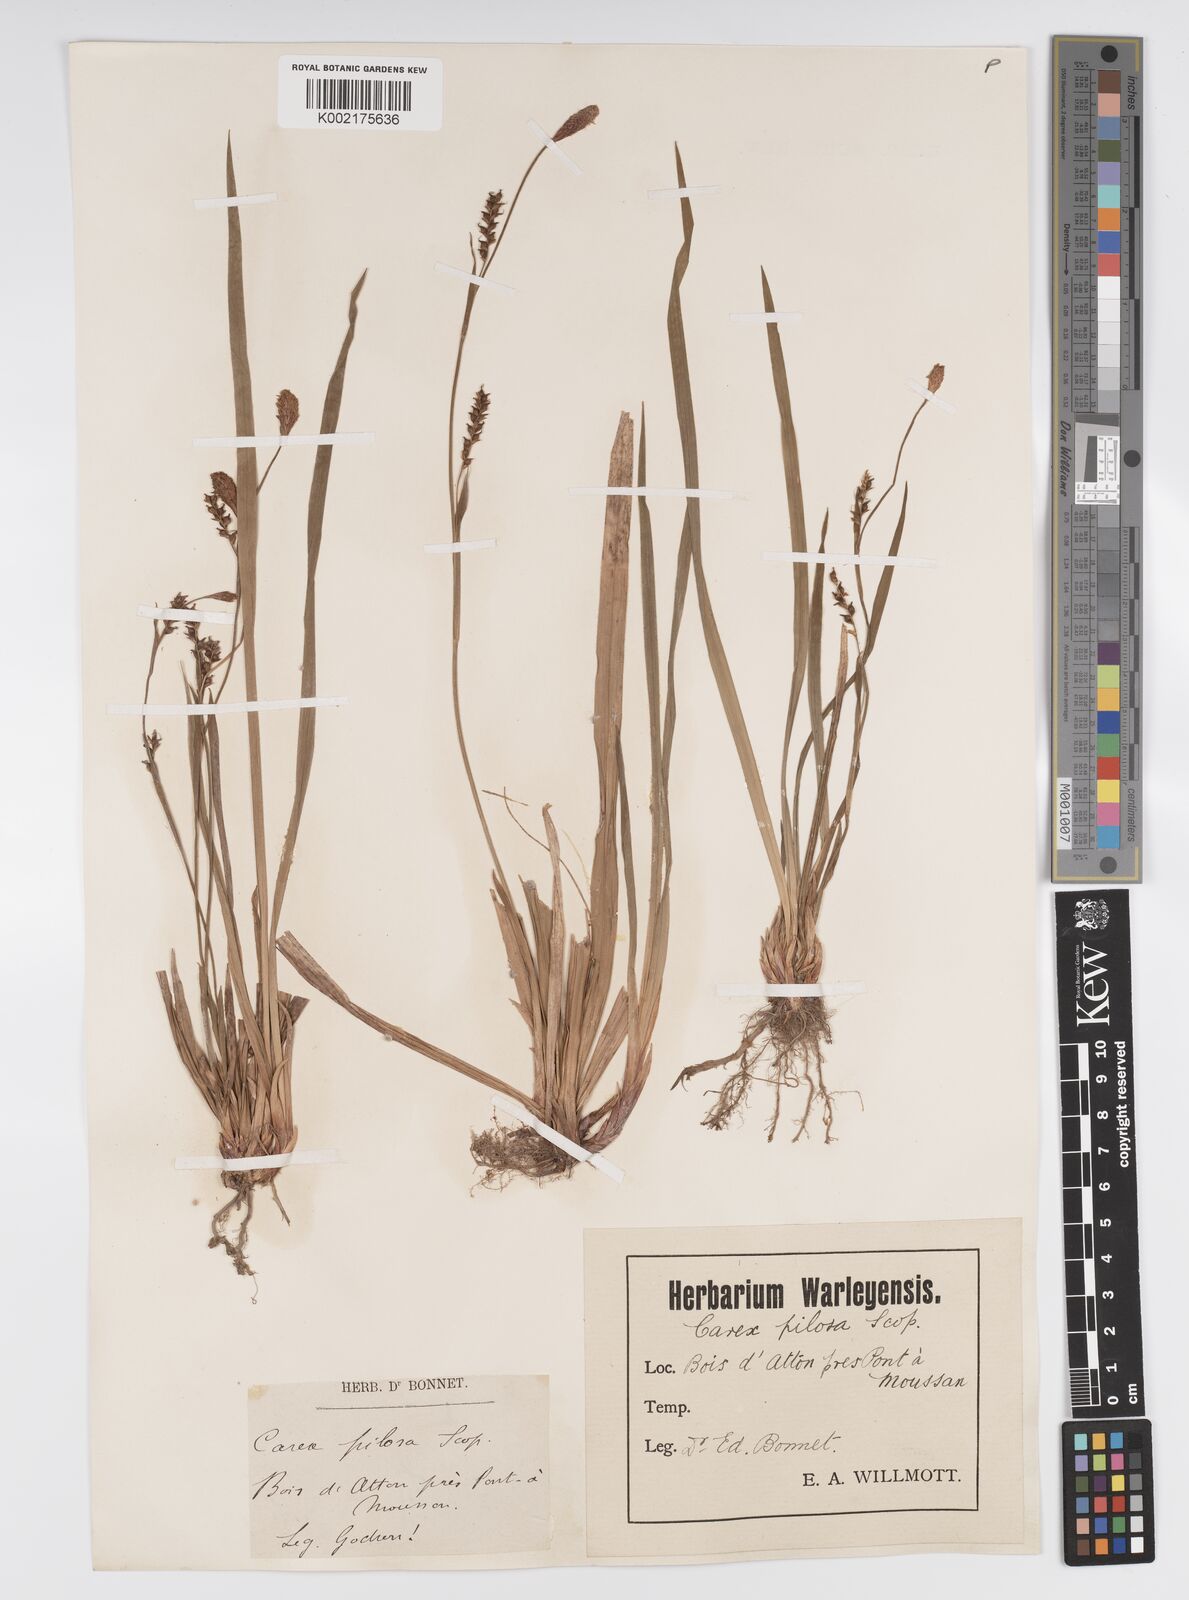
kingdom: Plantae
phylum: Tracheophyta
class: Liliopsida
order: Poales
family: Cyperaceae
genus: Carex
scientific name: Carex pilosa
